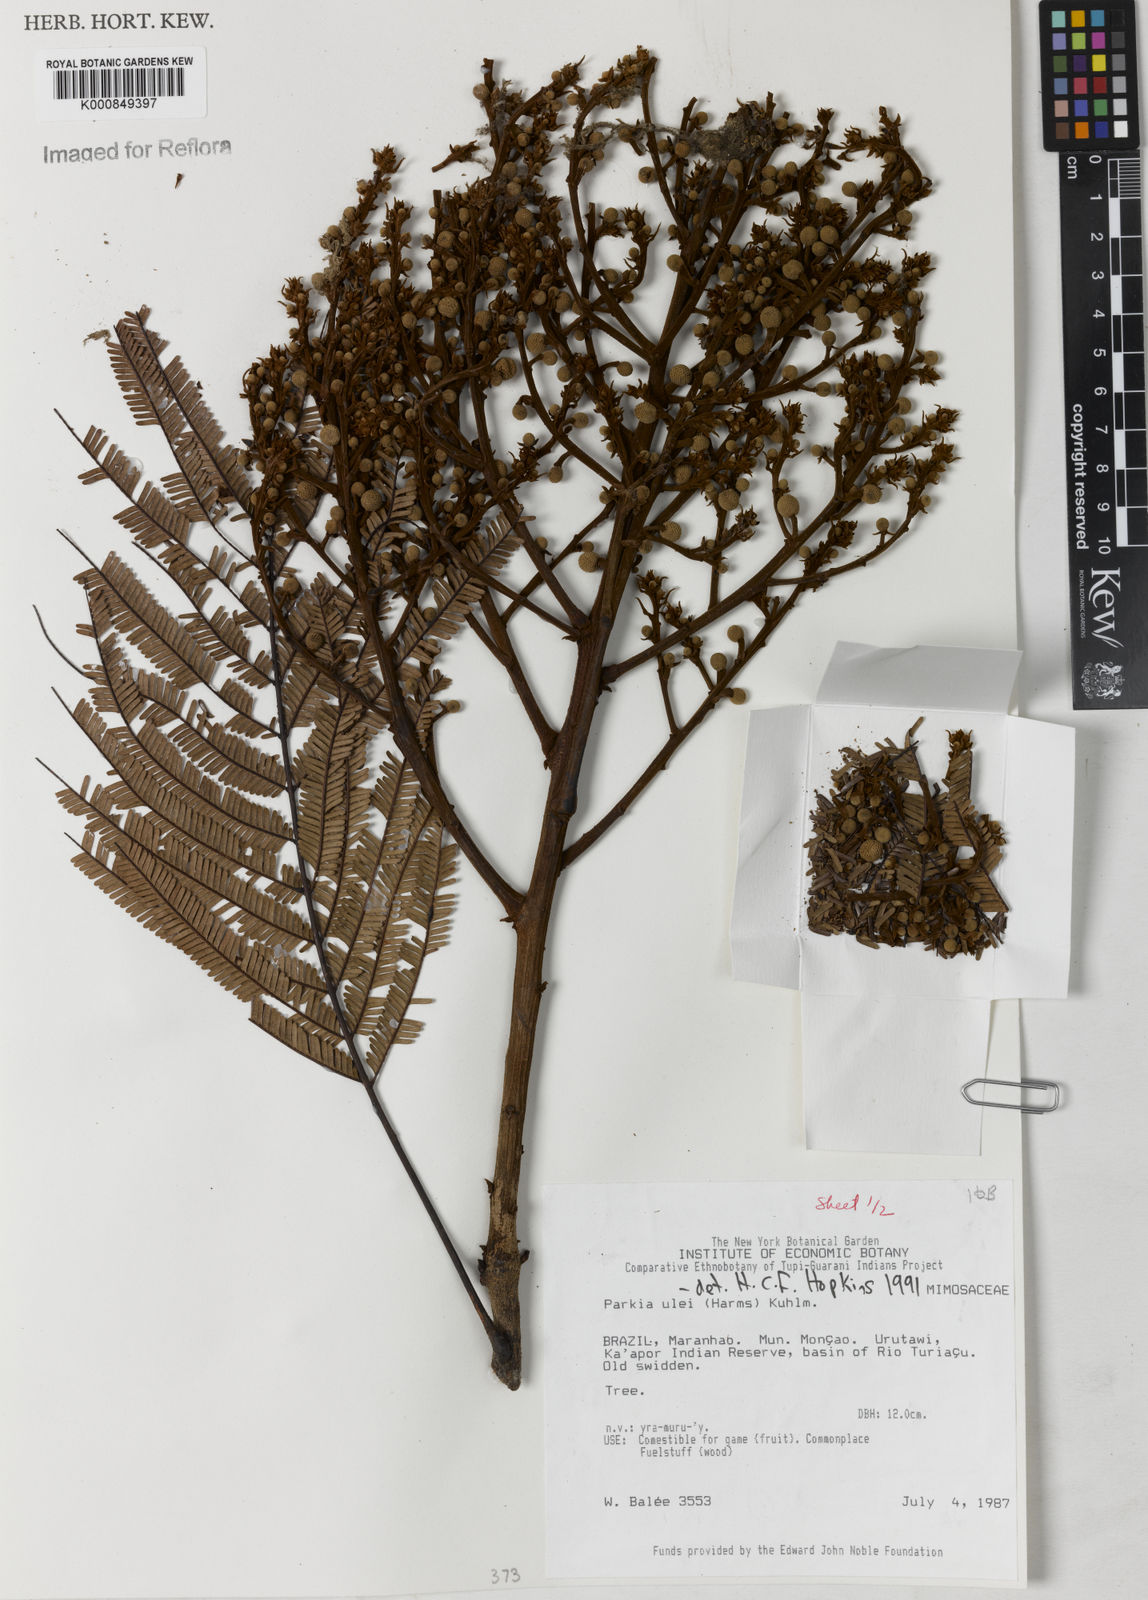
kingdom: Plantae
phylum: Tracheophyta
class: Magnoliopsida
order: Fabales
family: Fabaceae
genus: Parkia
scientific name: Parkia ulei
